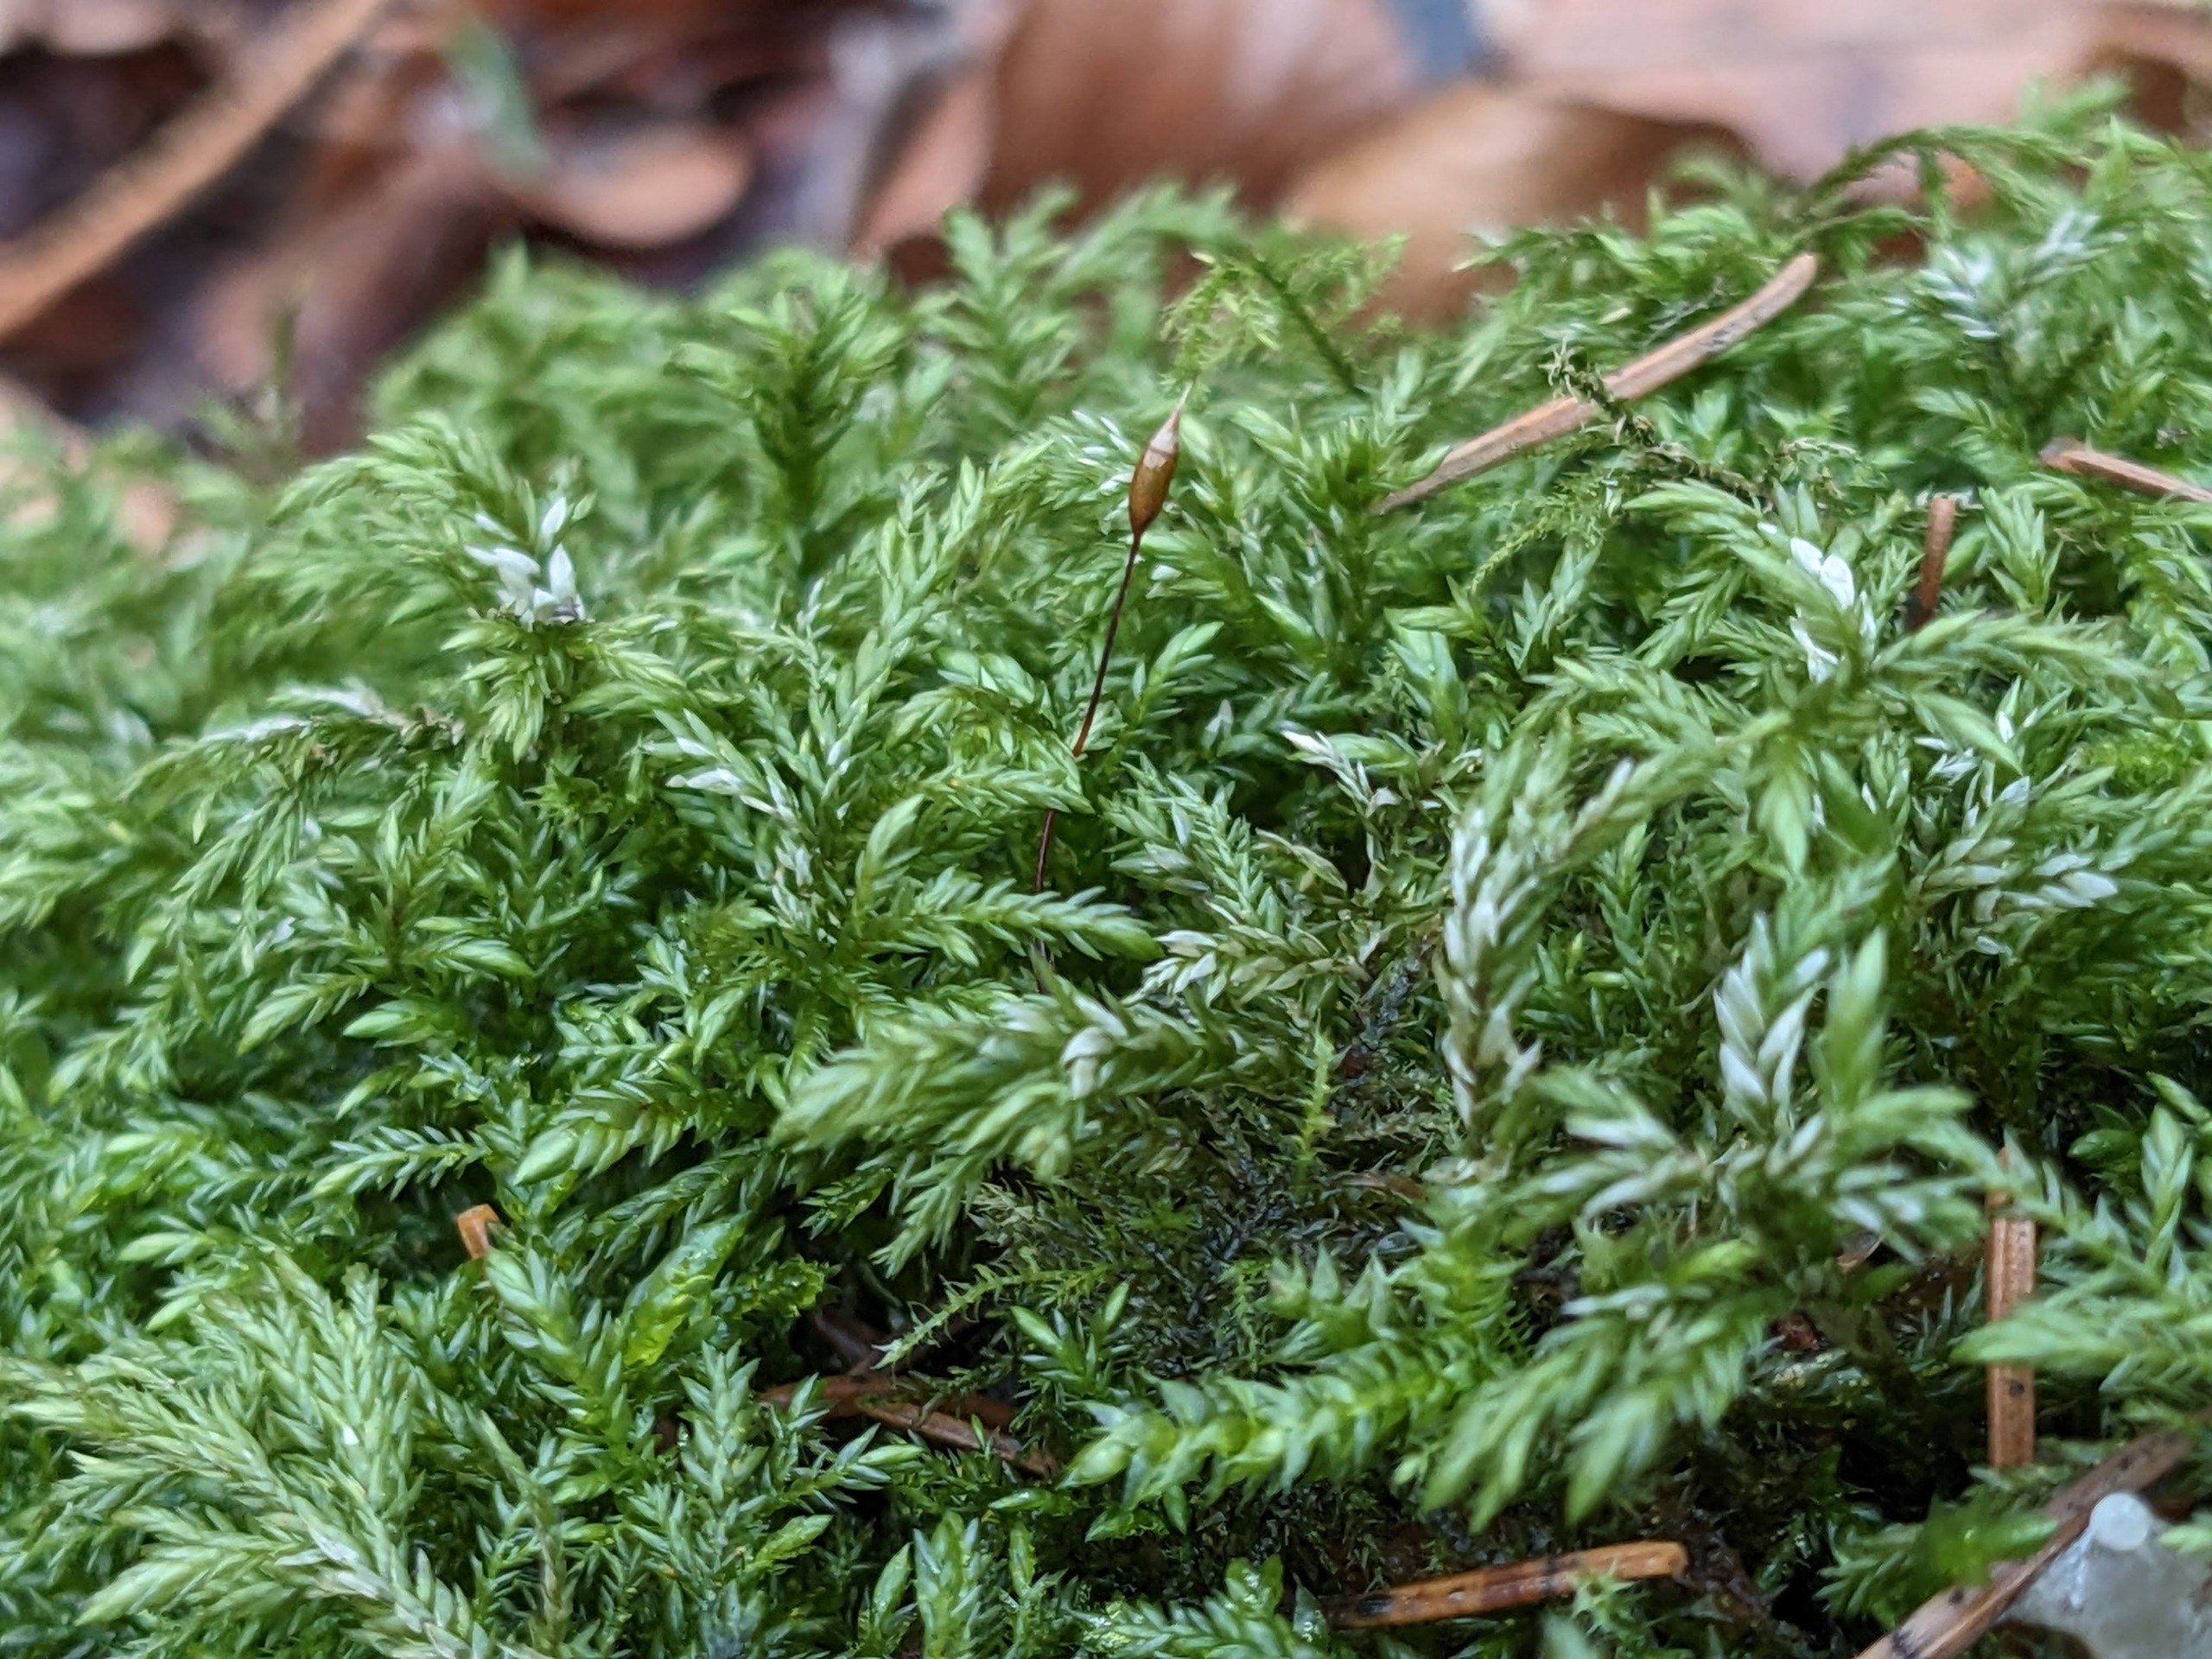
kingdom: Plantae
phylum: Bryophyta
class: Bryopsida
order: Hypnales
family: Lembophyllaceae
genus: Isothecium
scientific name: Isothecium alopecuroides
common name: Stor stammemos
